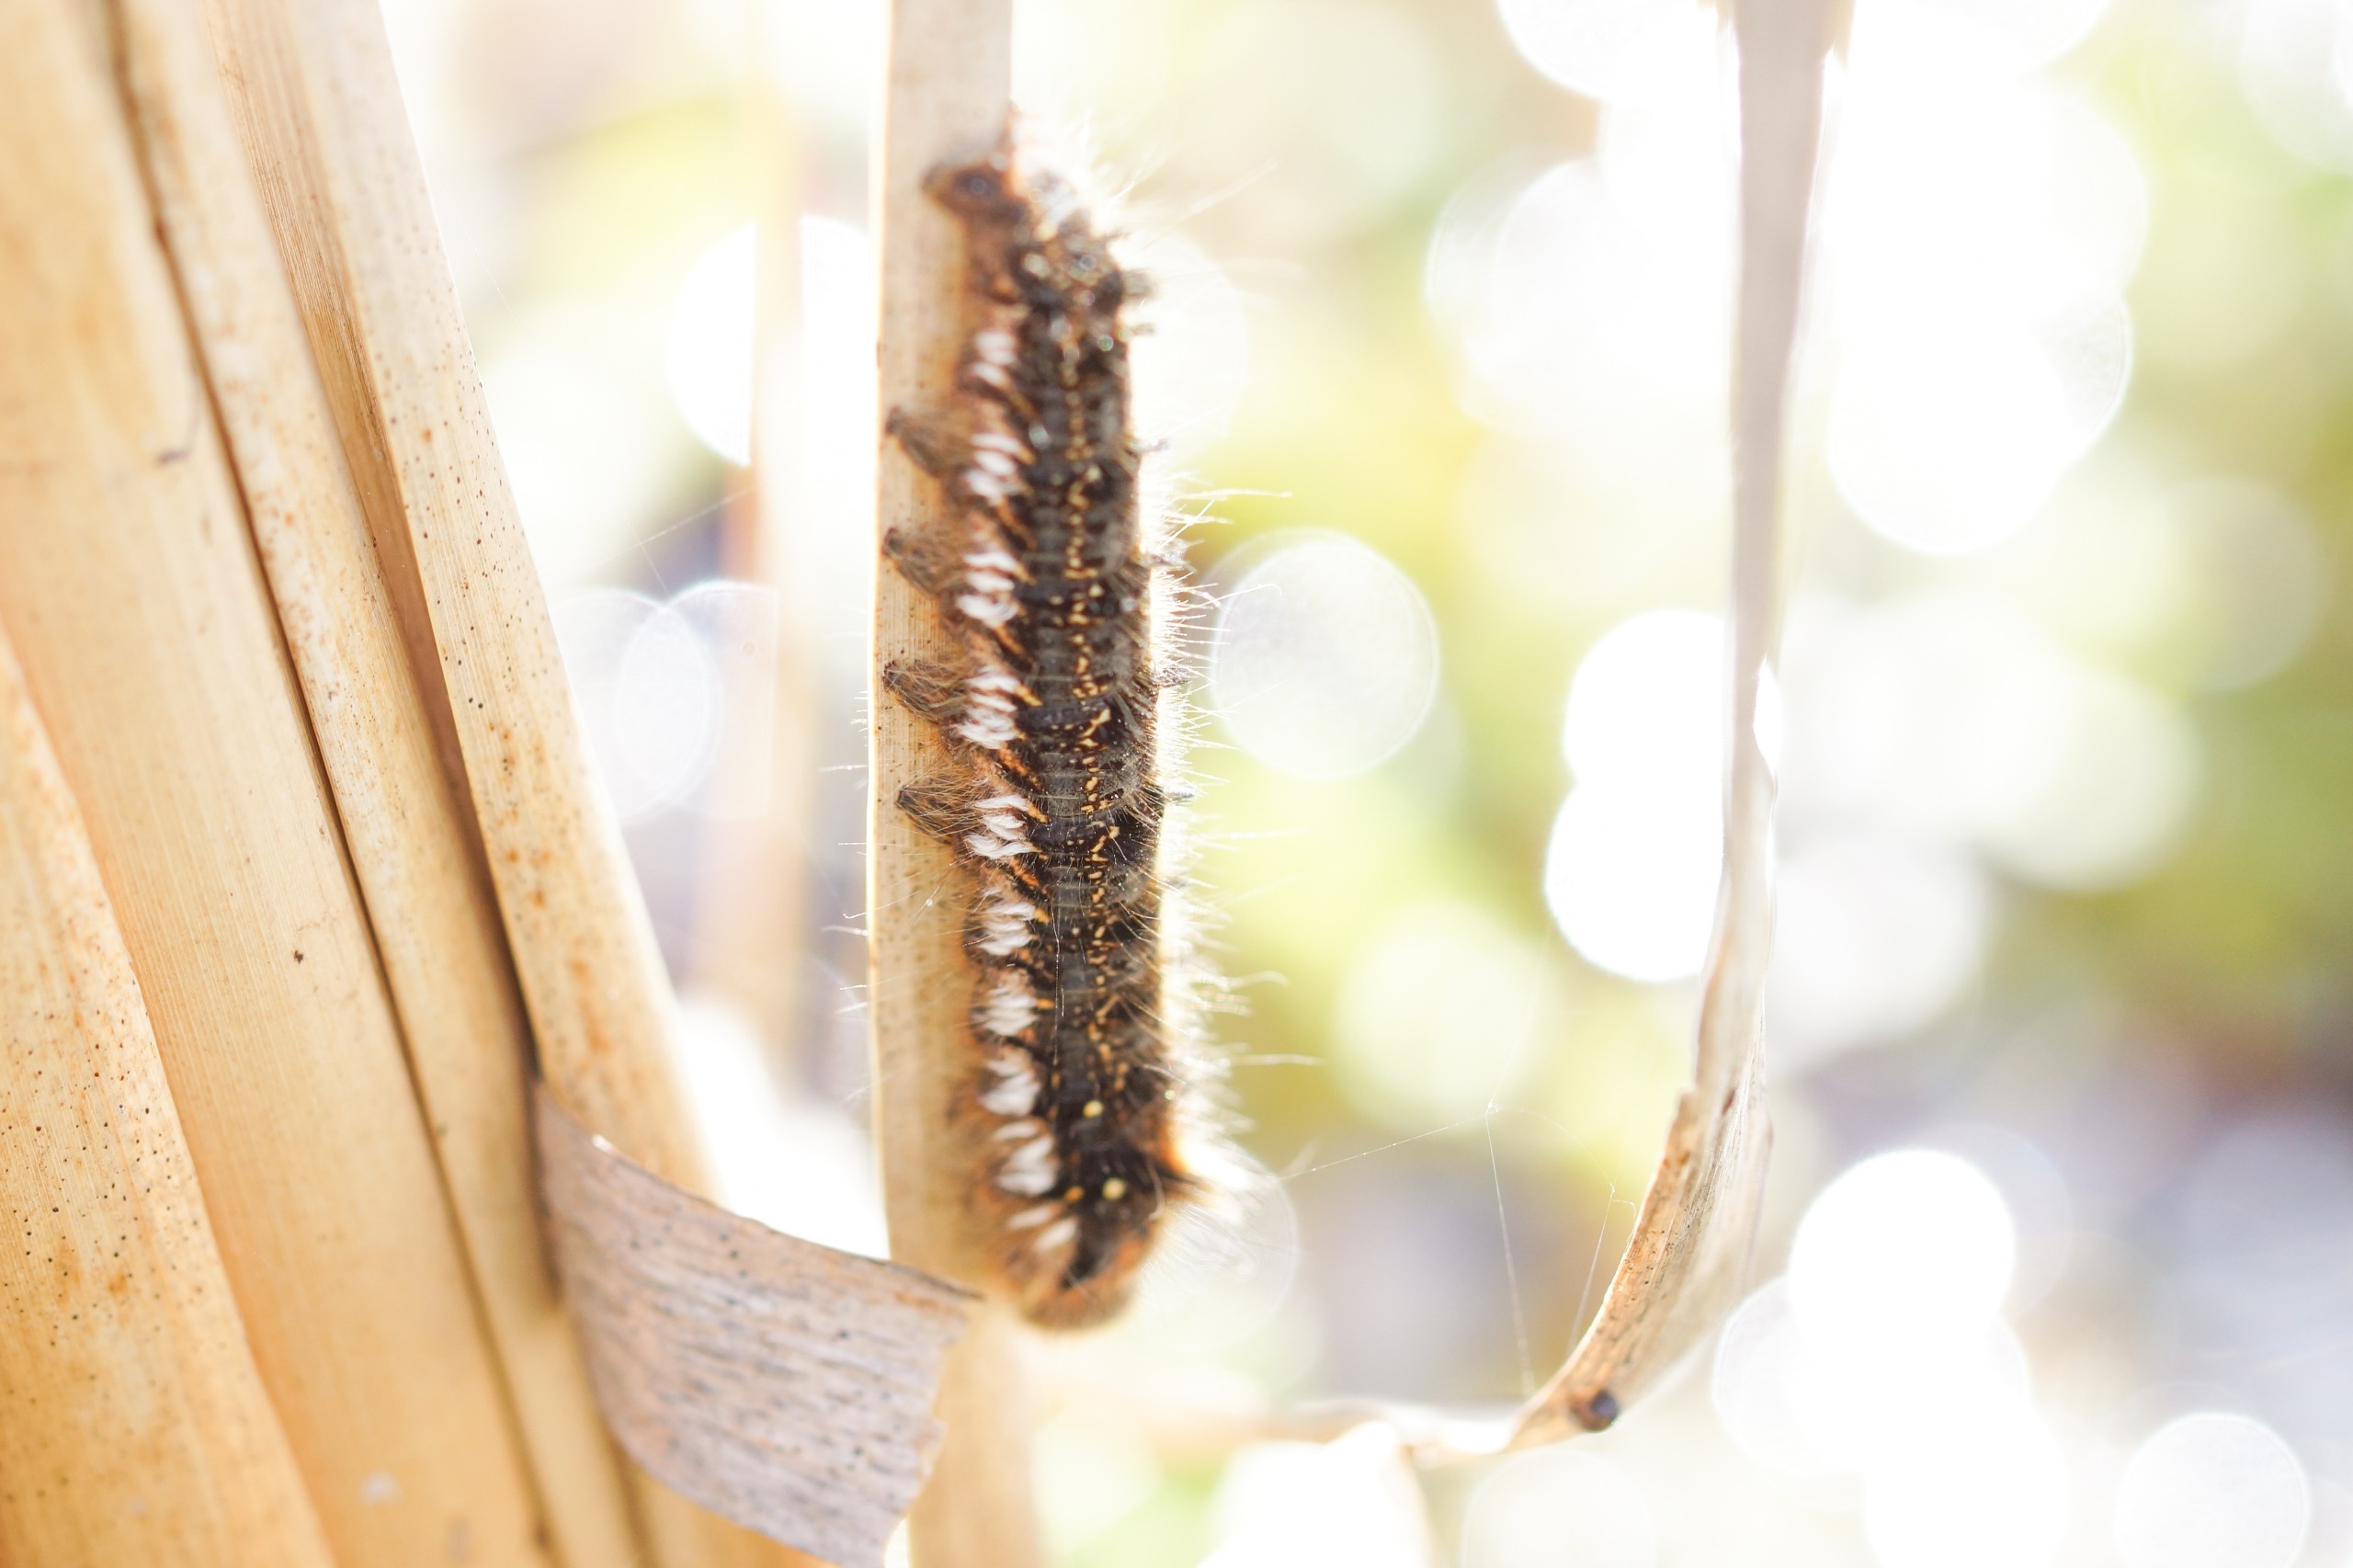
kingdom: Animalia
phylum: Arthropoda
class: Insecta
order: Lepidoptera
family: Lasiocampidae
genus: Euthrix
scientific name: Euthrix potatoria
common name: Græsspinder
